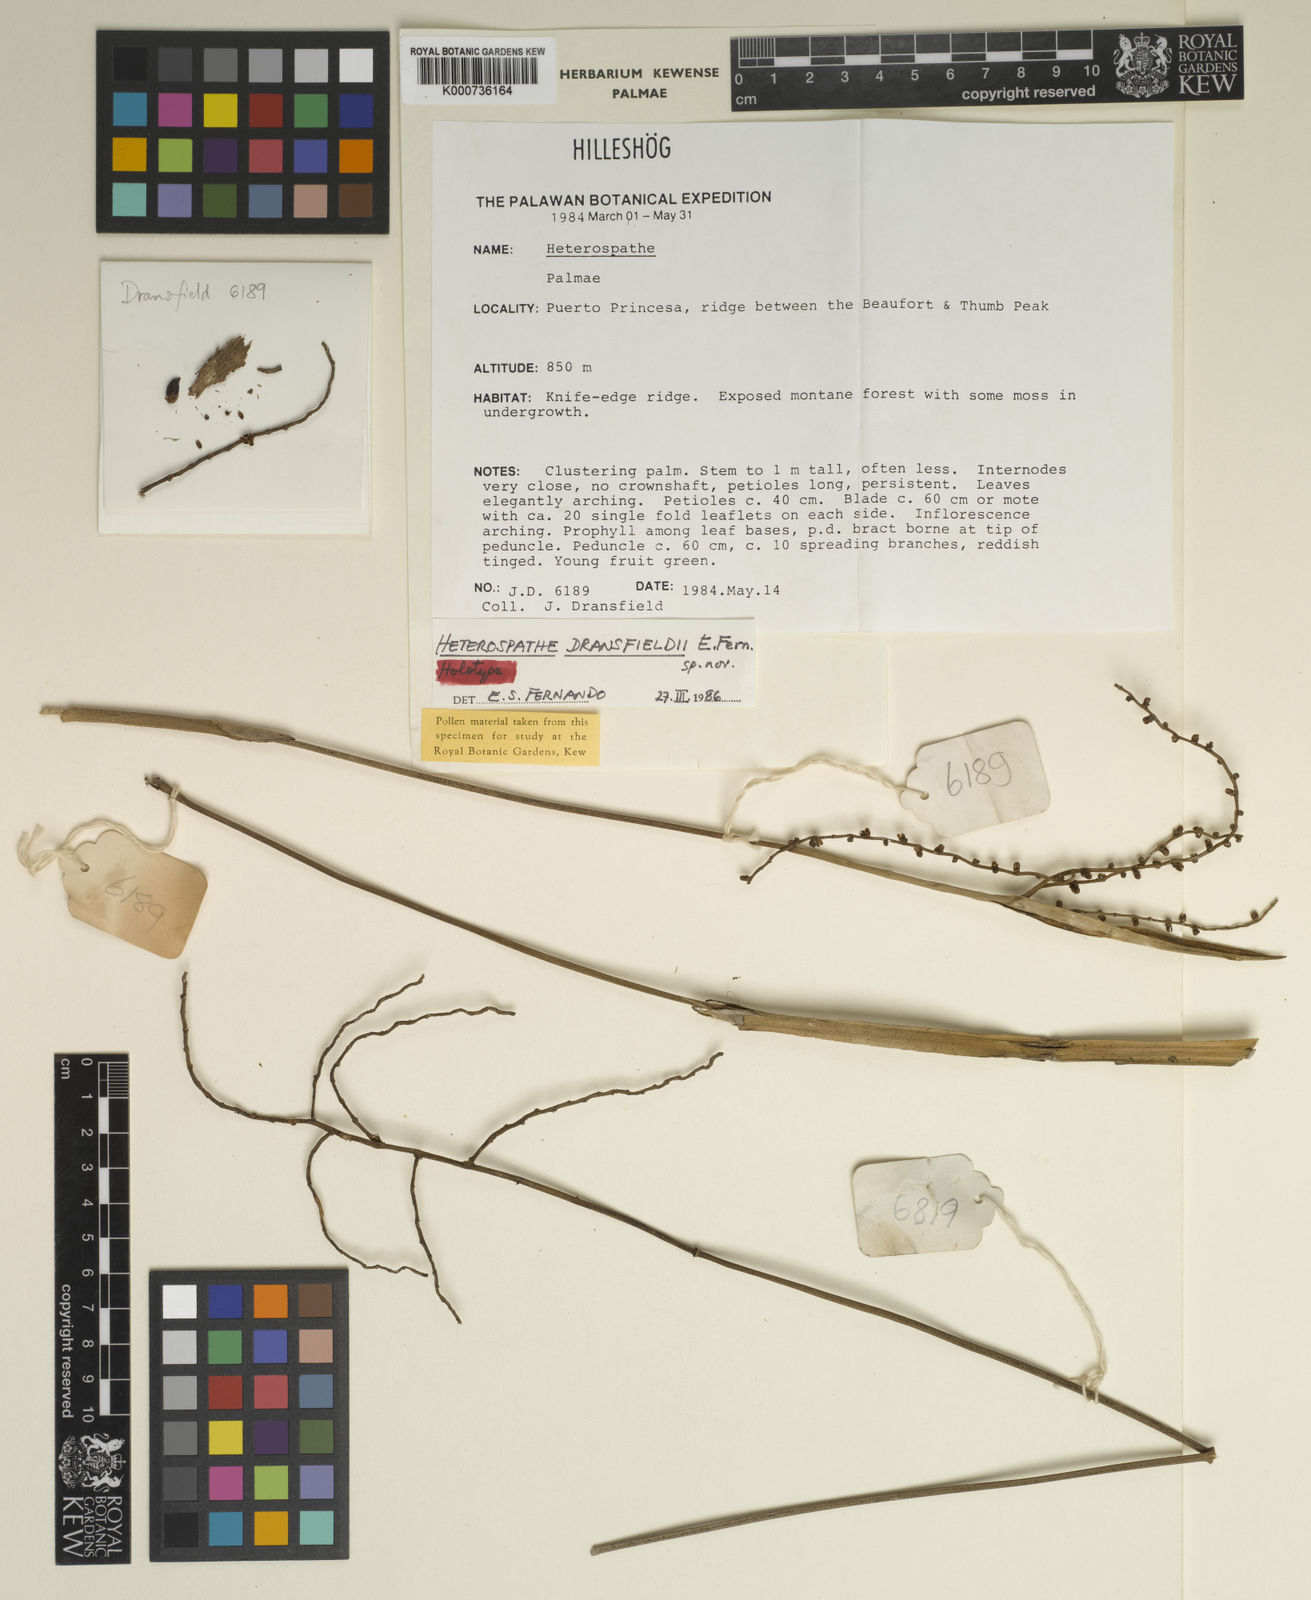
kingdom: Plantae
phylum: Tracheophyta
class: Liliopsida
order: Arecales
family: Arecaceae
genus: Heterospathe
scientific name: Heterospathe dransfieldii
